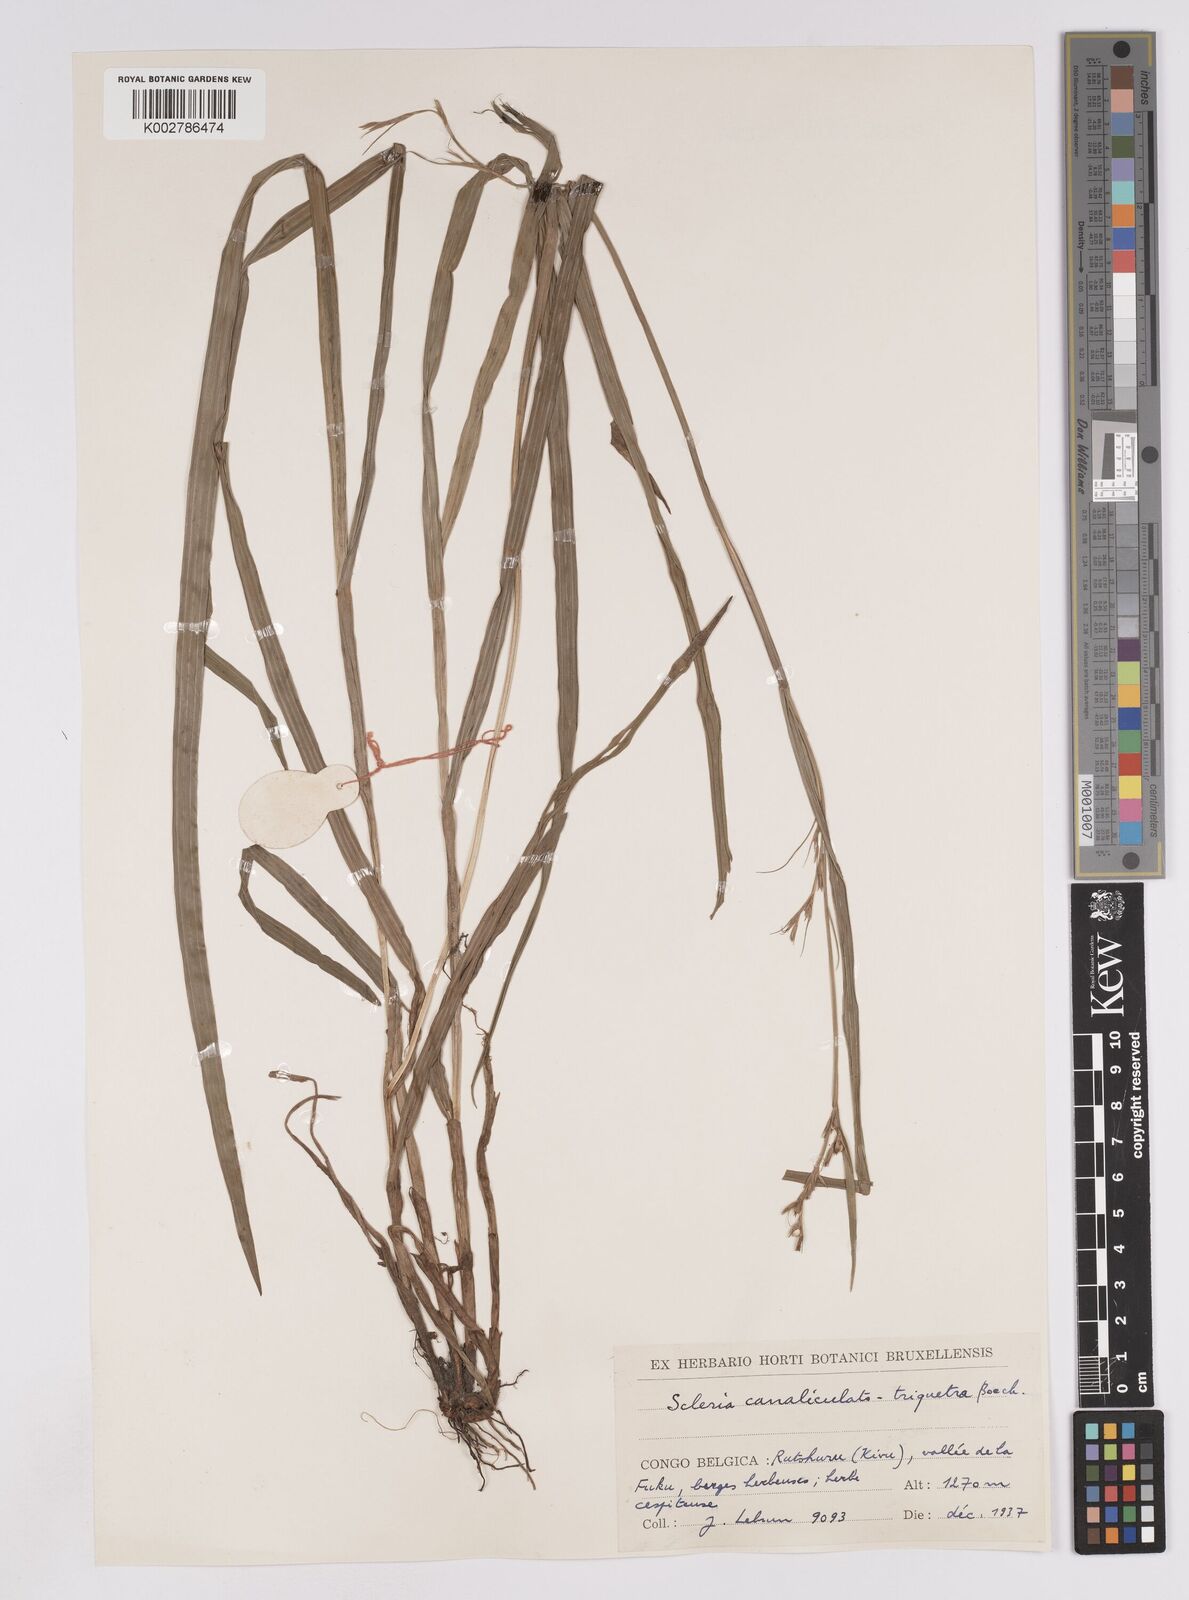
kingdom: Plantae
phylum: Tracheophyta
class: Liliopsida
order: Poales
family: Cyperaceae
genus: Scleria
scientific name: Scleria lagoensis
